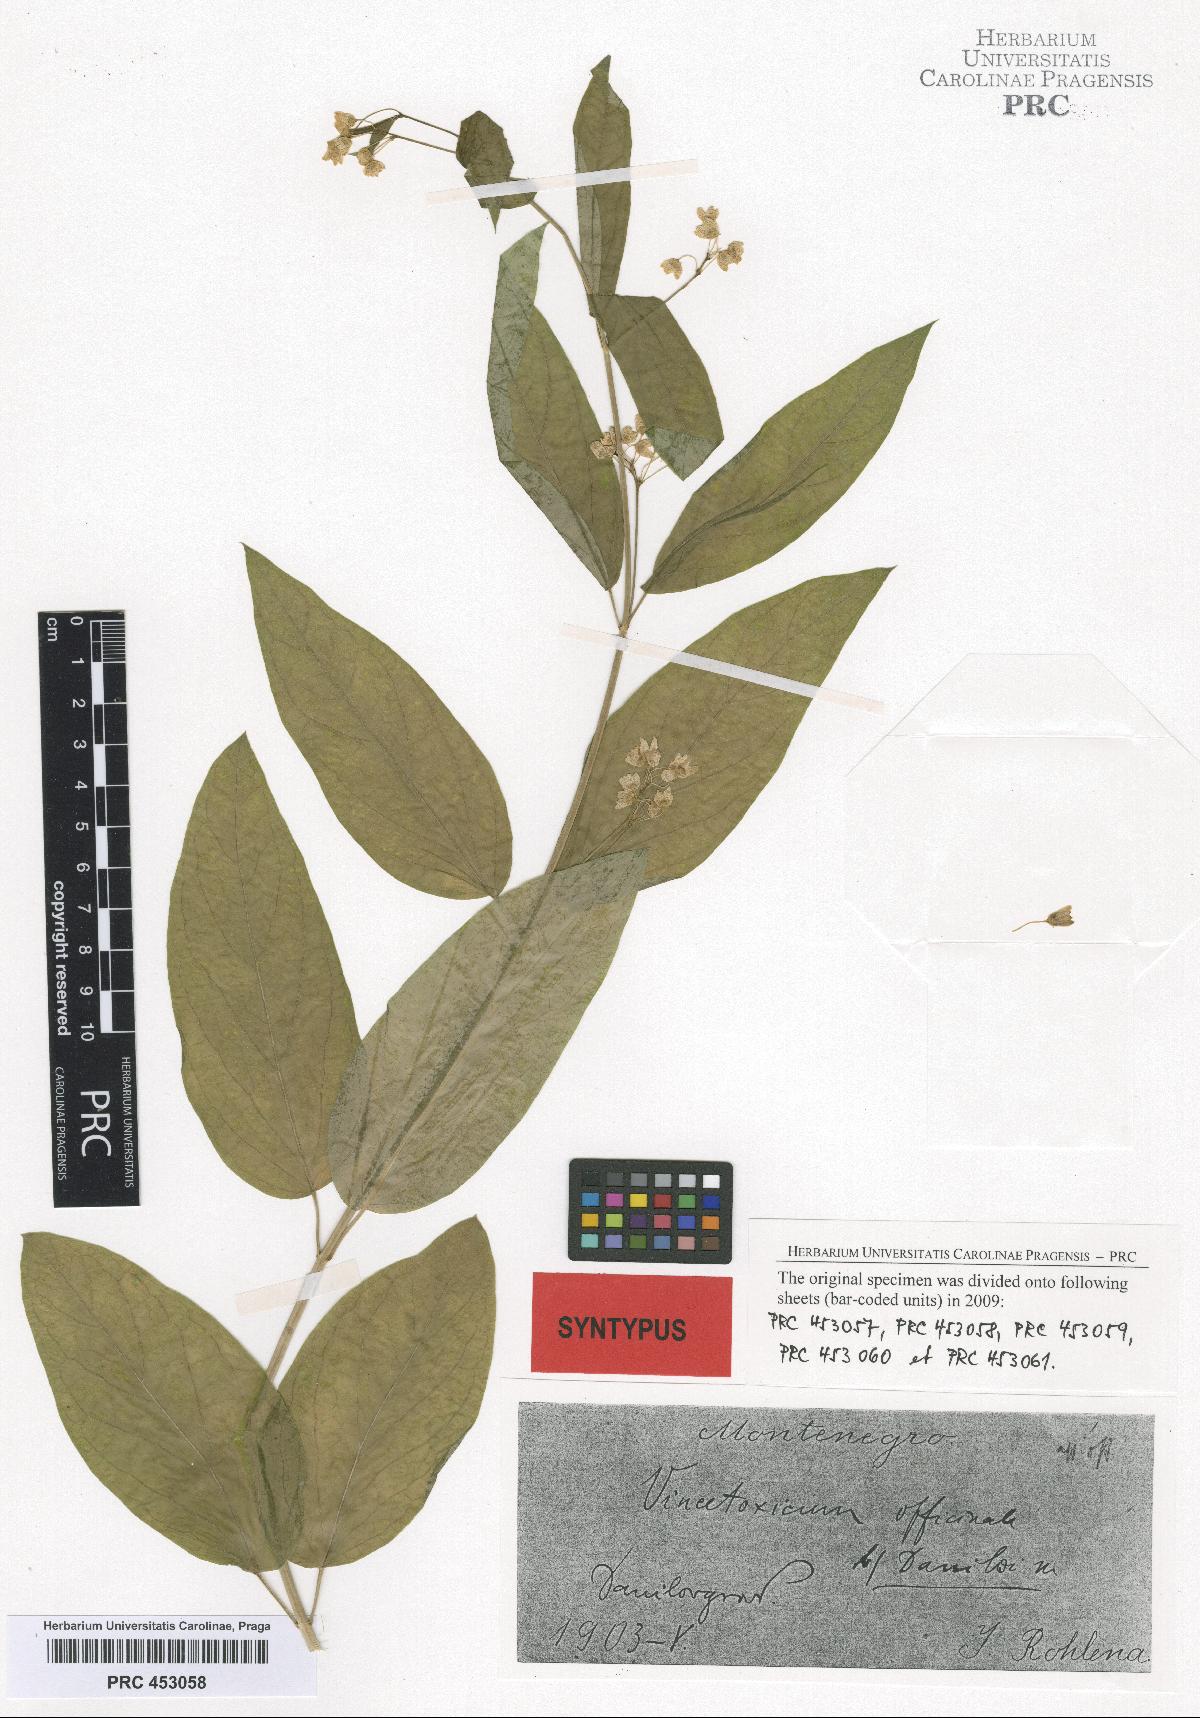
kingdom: Plantae
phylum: Tracheophyta
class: Magnoliopsida
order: Gentianales
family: Apocynaceae
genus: Vincetoxicum
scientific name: Vincetoxicum hirundinaria
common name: White swallowwort
